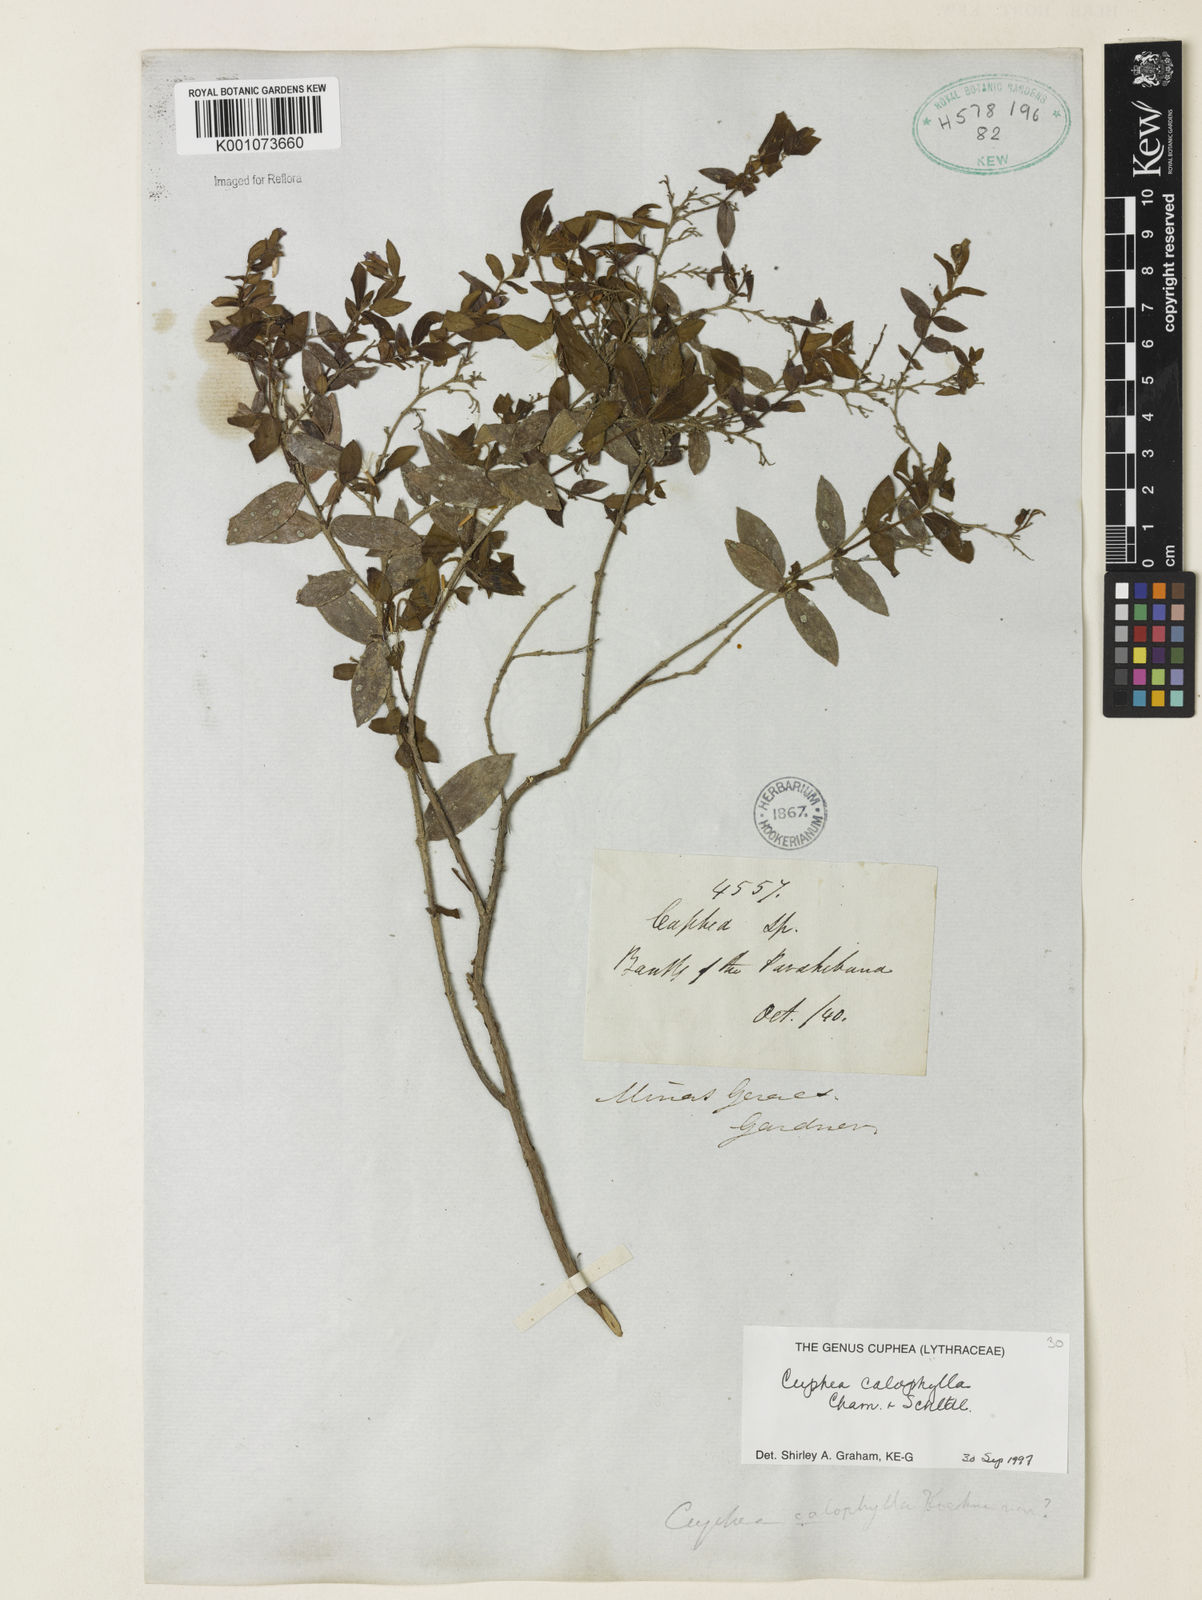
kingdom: Plantae
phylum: Tracheophyta
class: Magnoliopsida
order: Myrtales
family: Lythraceae
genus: Cuphea
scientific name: Cuphea calophylla
